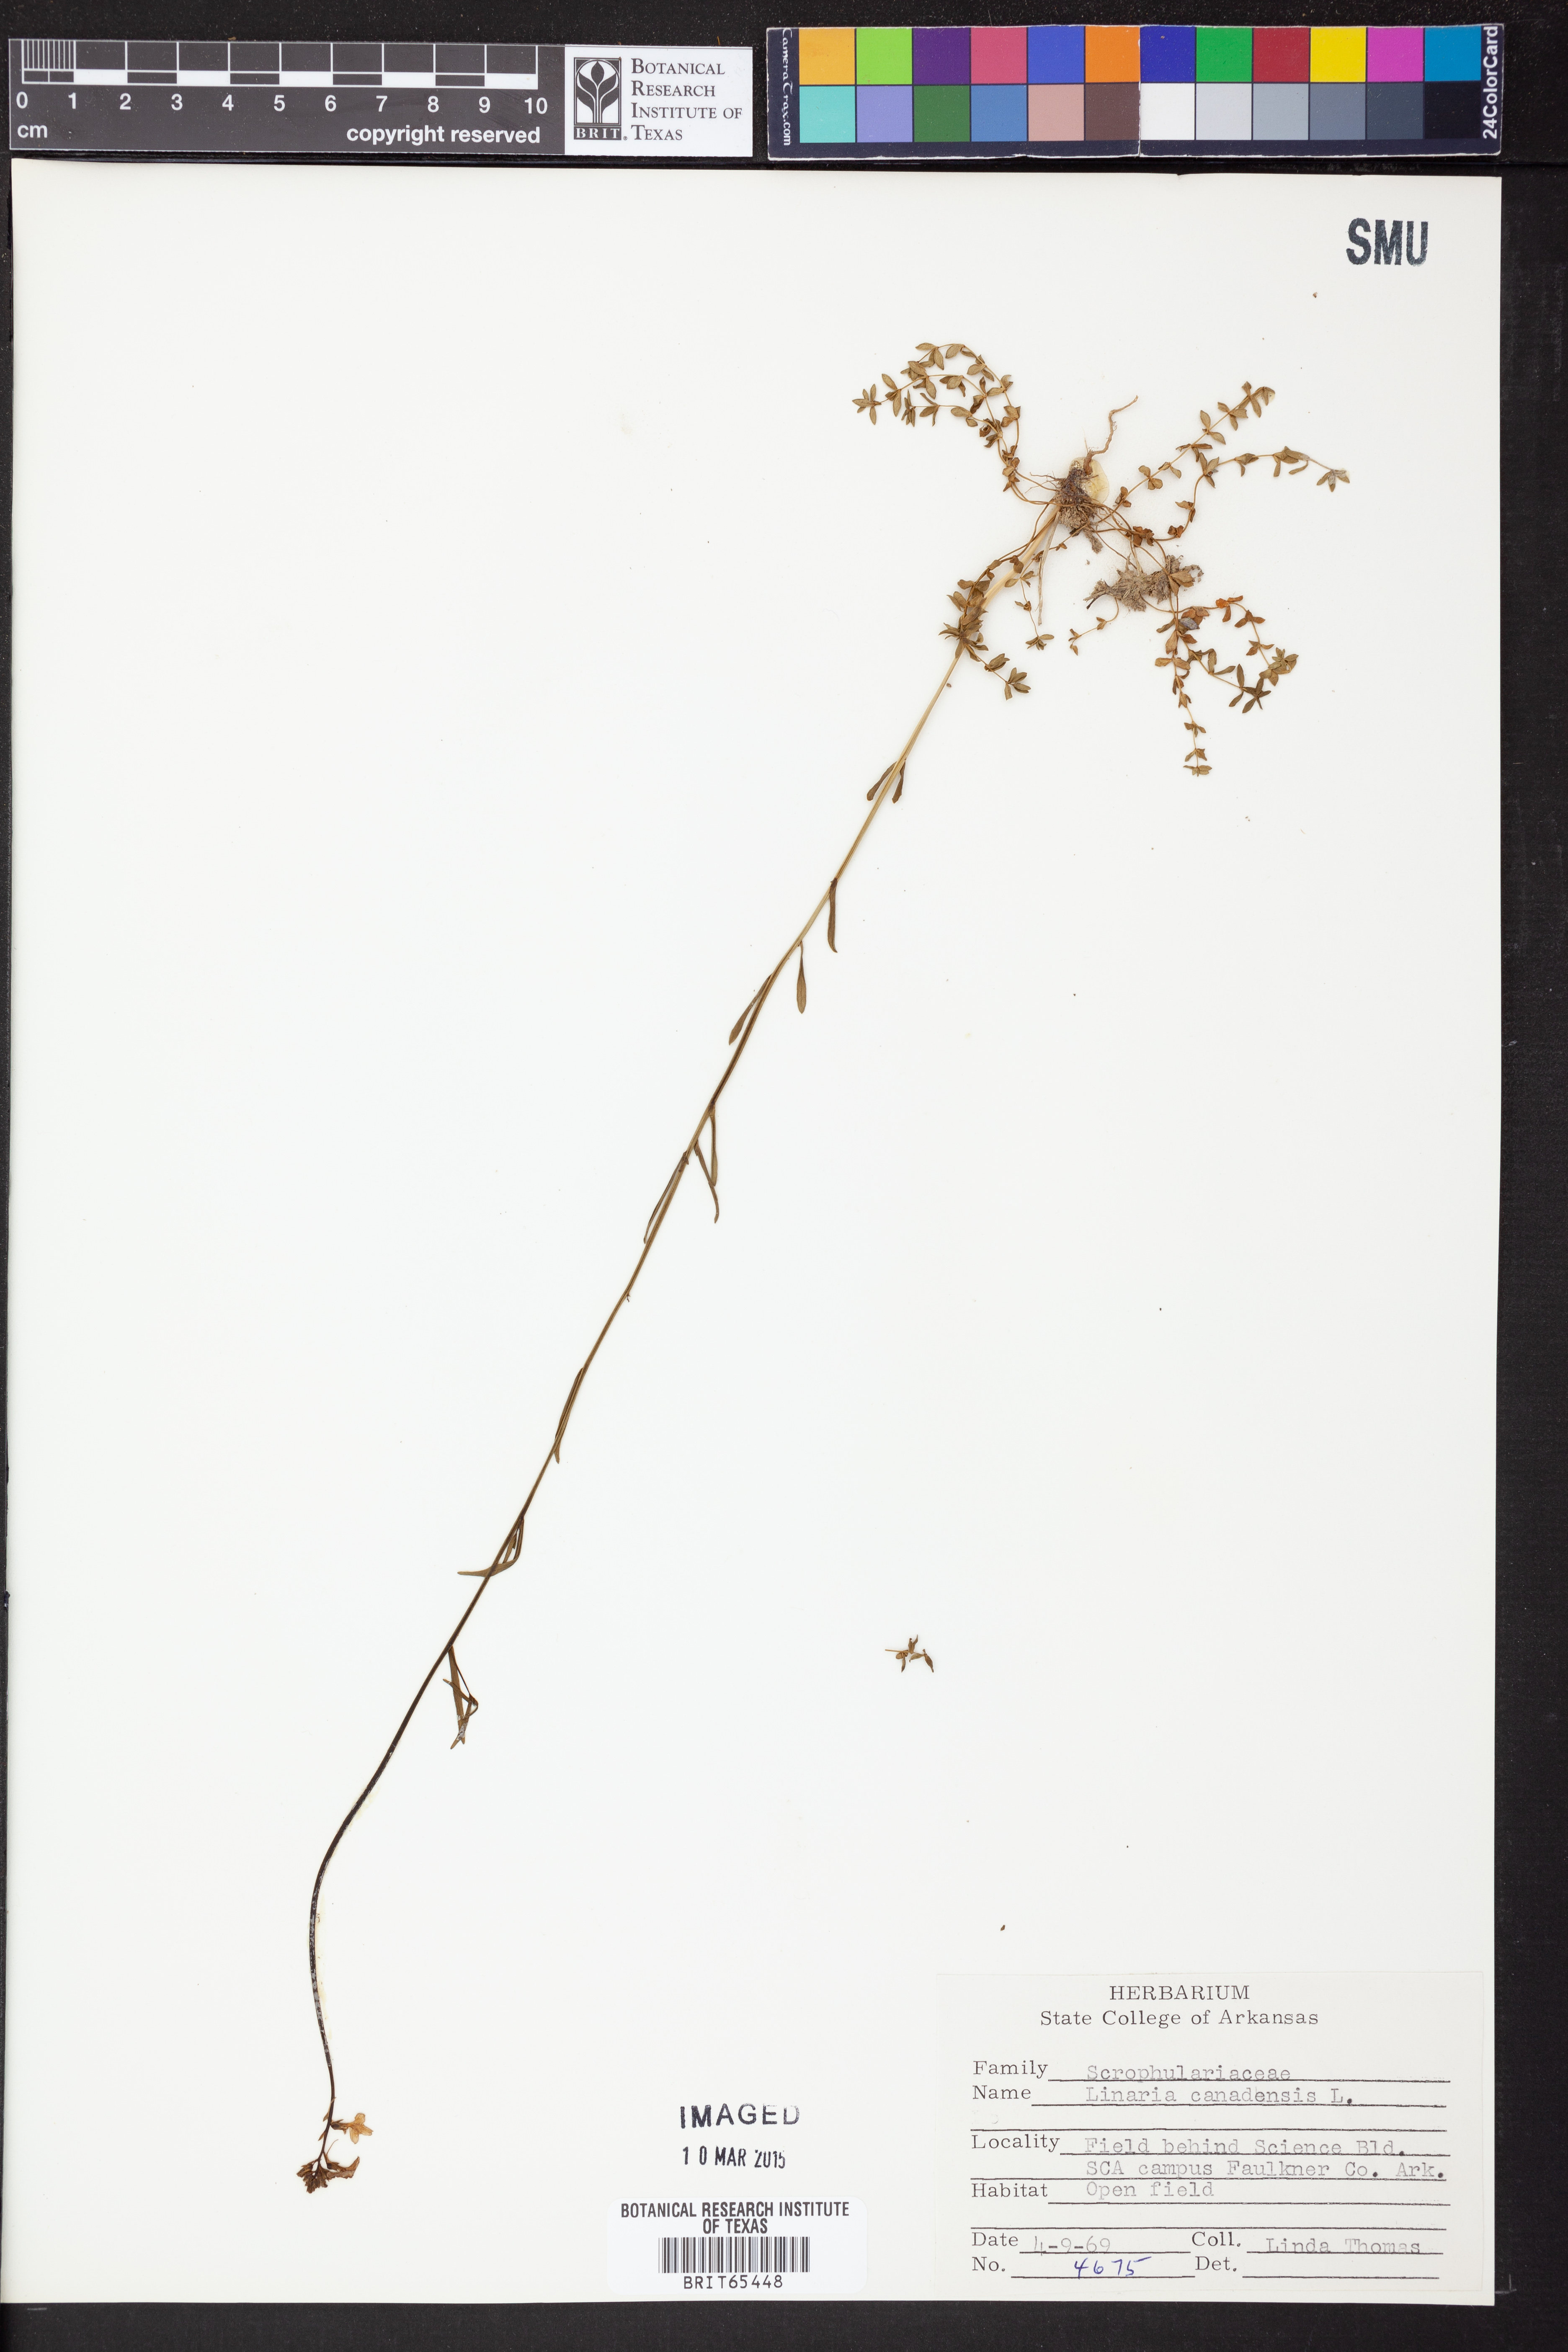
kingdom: Plantae
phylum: Tracheophyta
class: Magnoliopsida
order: Lamiales
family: Plantaginaceae
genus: Nuttallanthus
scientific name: Nuttallanthus canadensis
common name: Blue toadflax
